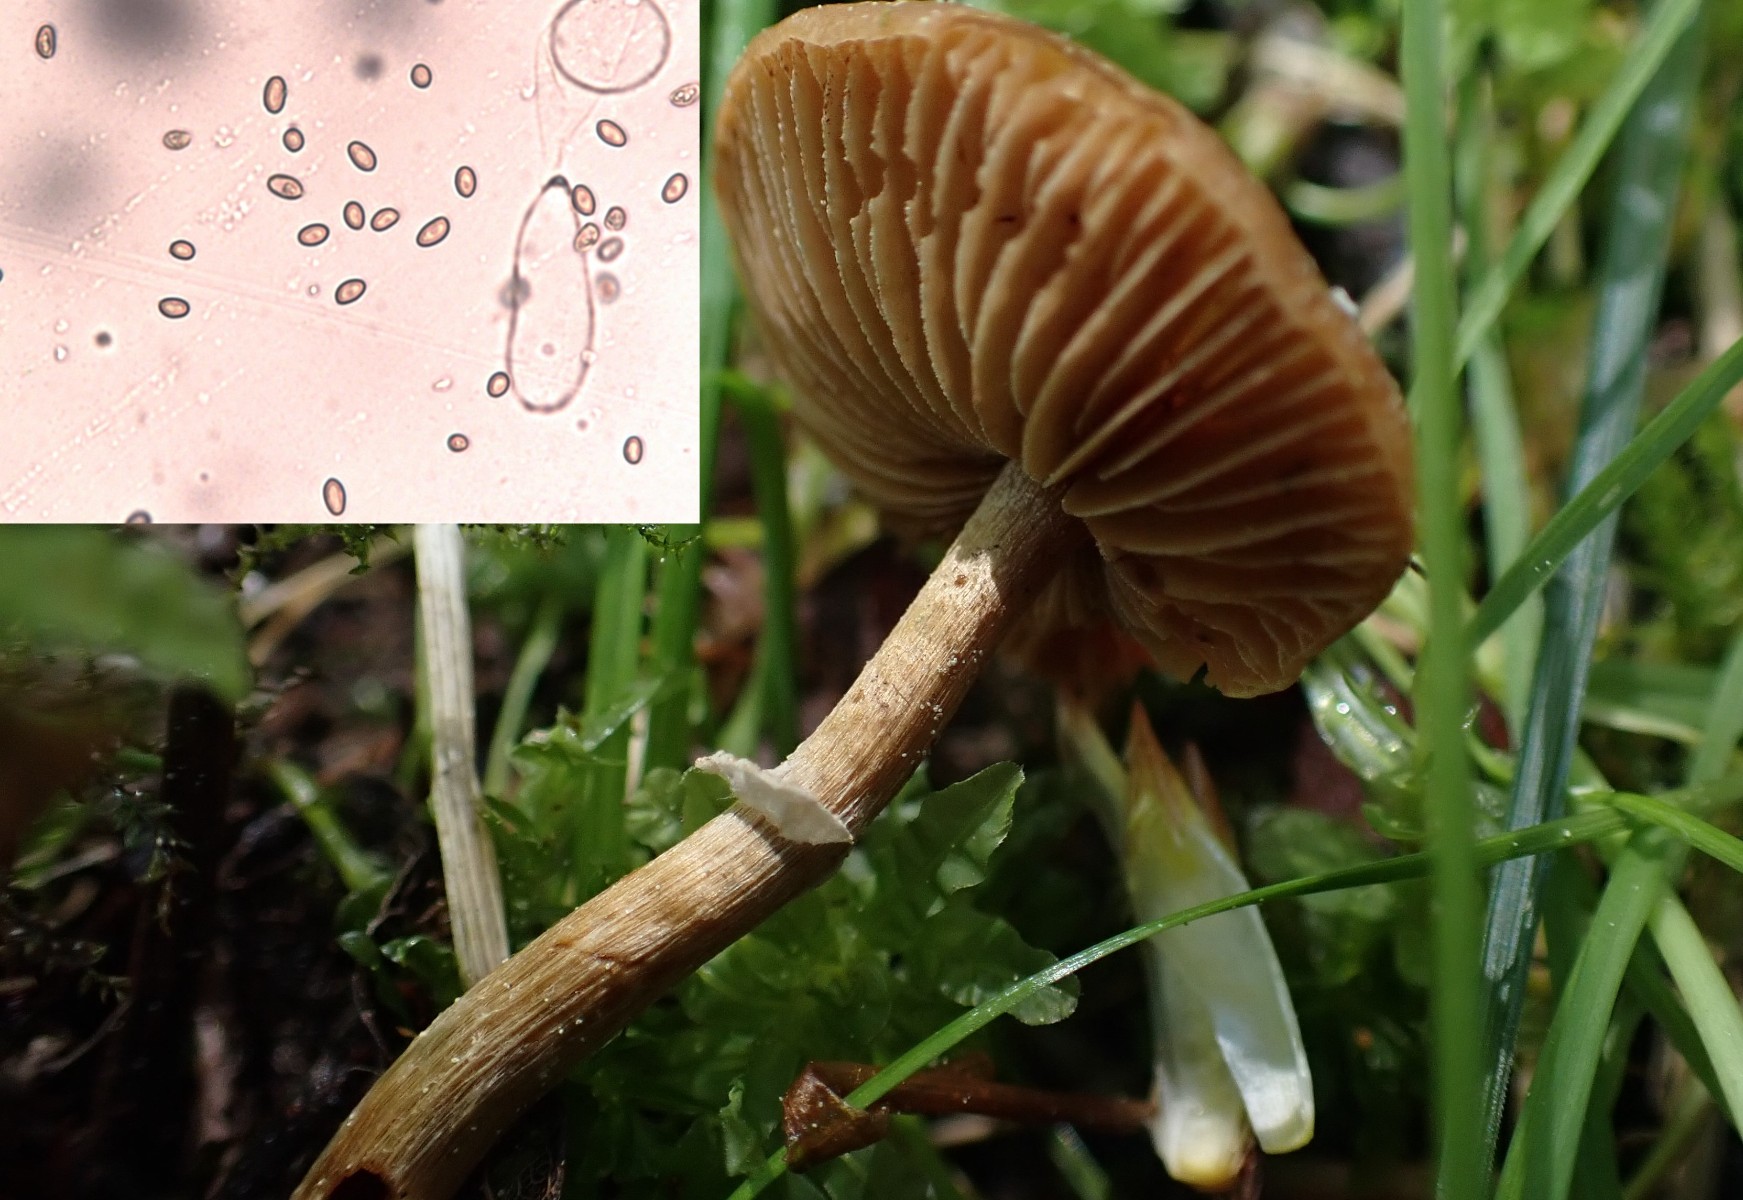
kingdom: Fungi
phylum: Basidiomycota
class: Agaricomycetes
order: Agaricales
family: Bolbitiaceae
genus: Conocybe
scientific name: Conocybe aporos
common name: tidlig dansehat
